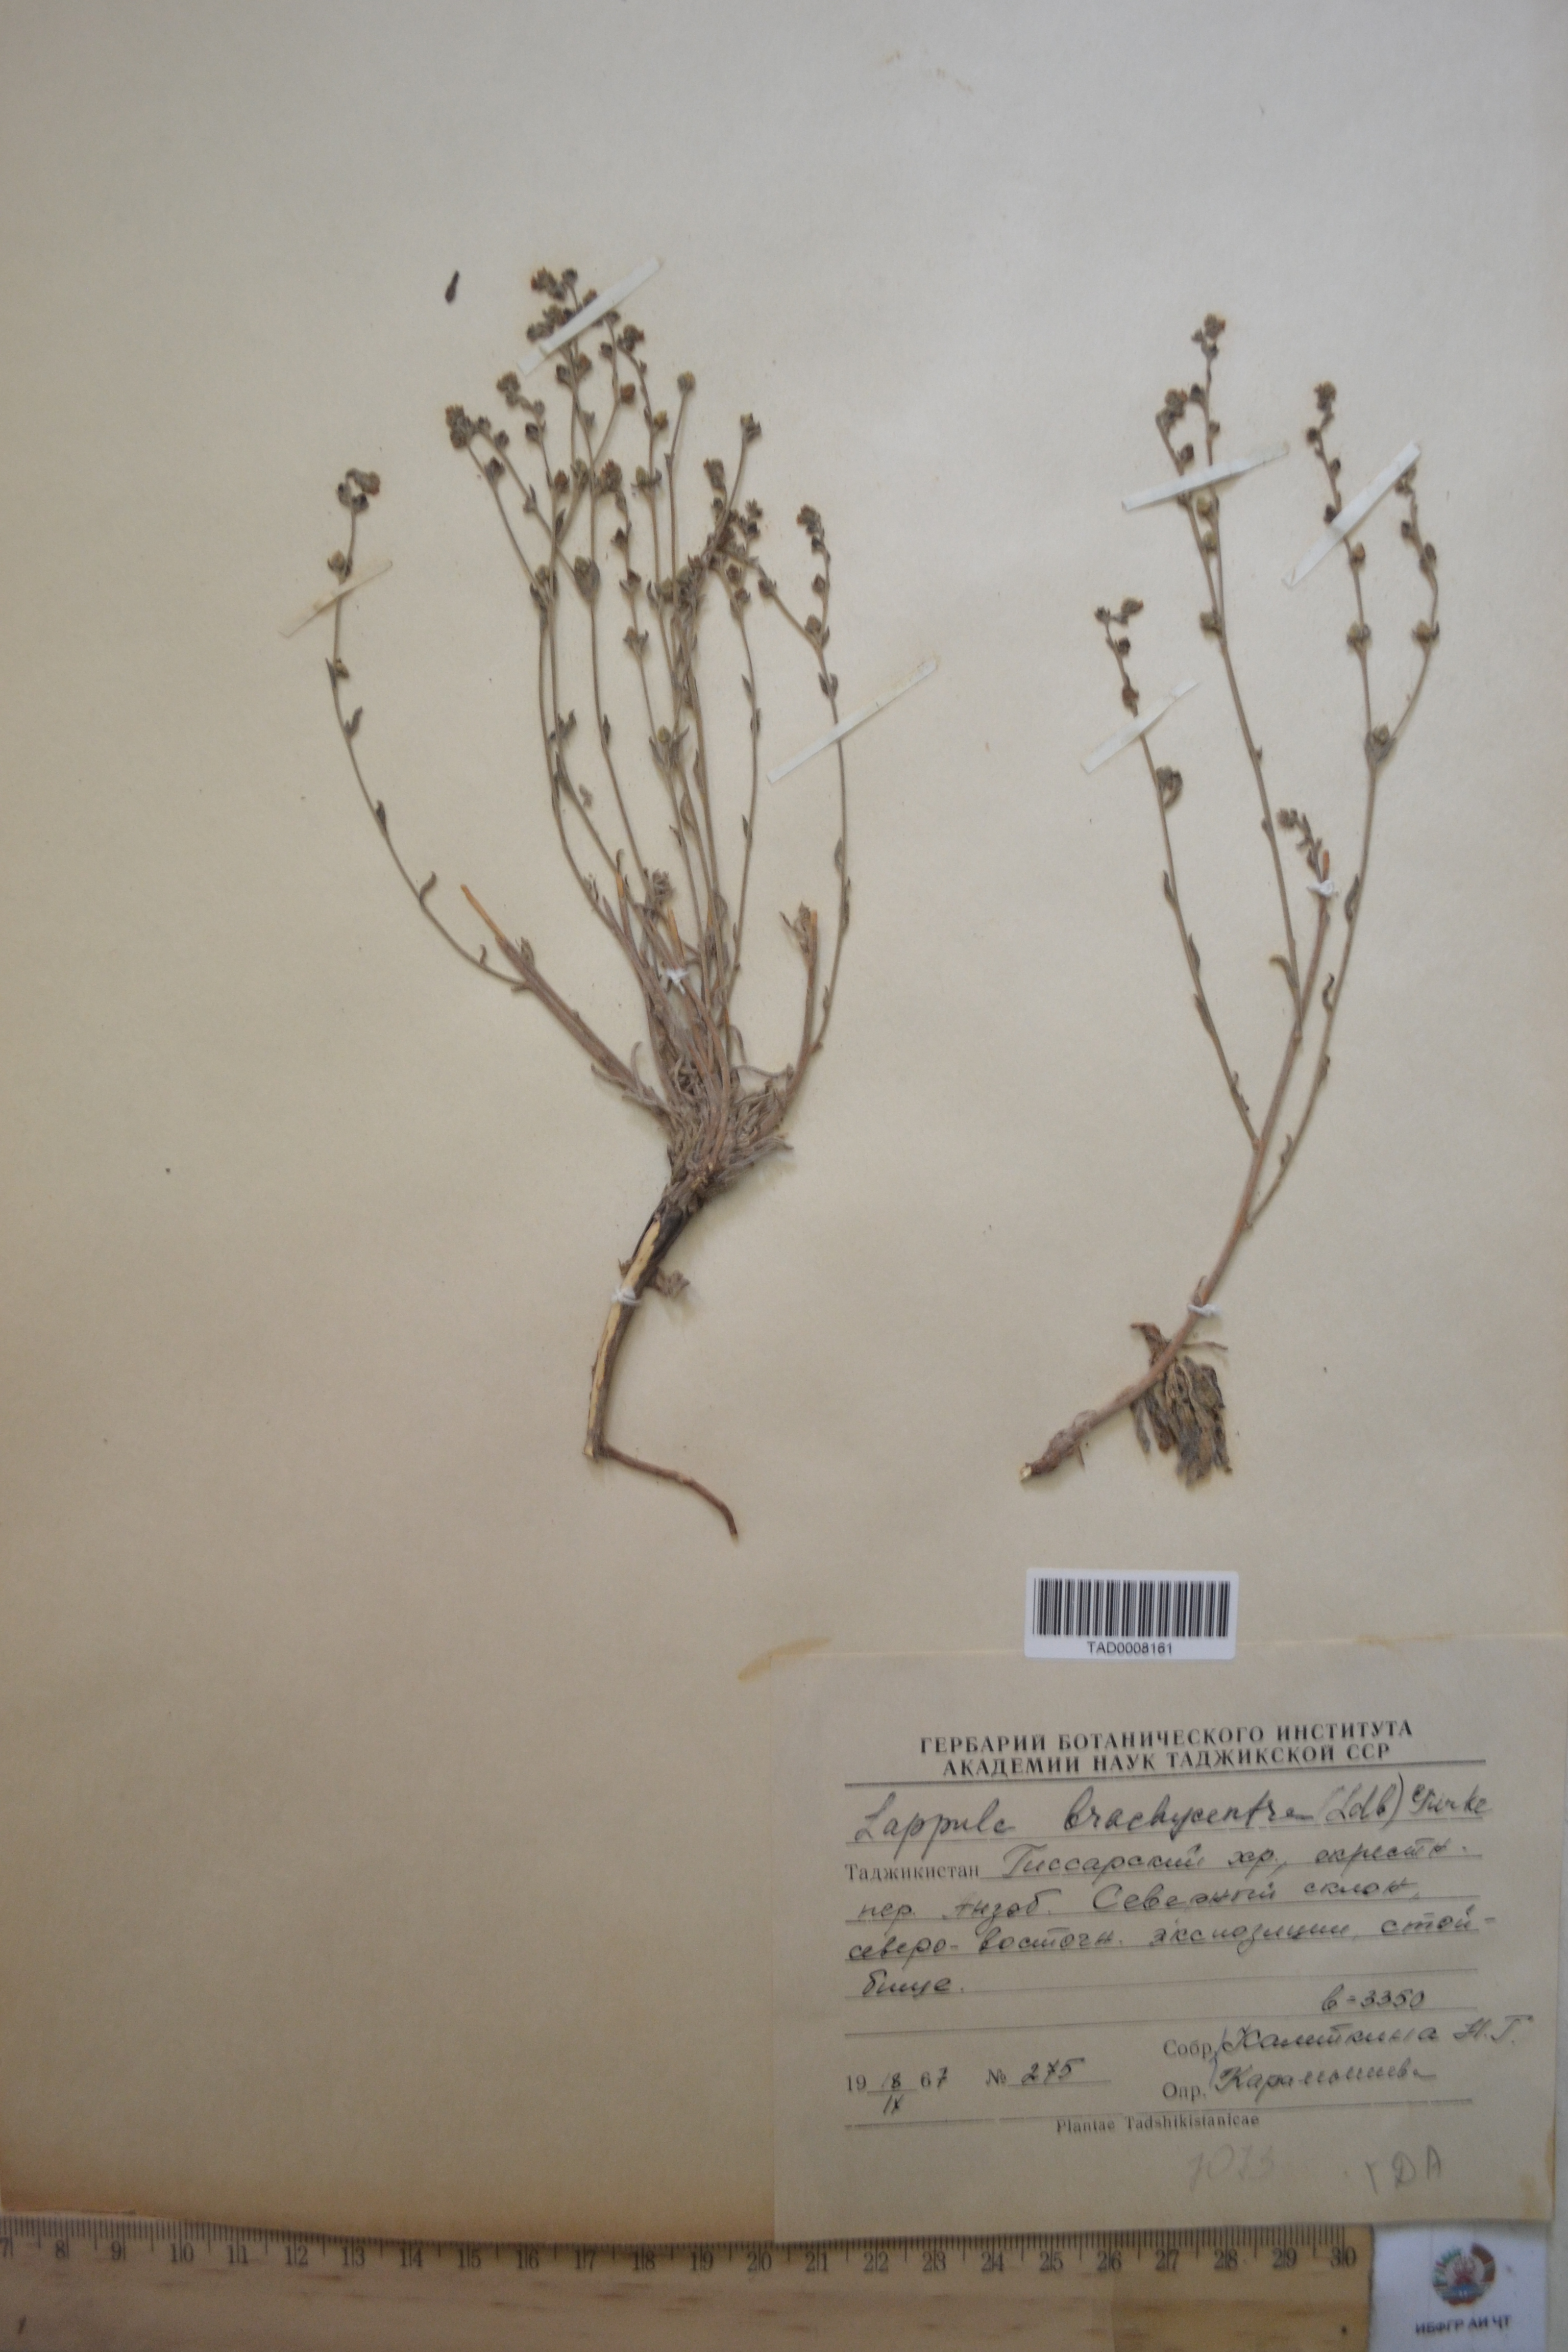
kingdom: Plantae
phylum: Tracheophyta
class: Magnoliopsida
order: Boraginales
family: Boraginaceae
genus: Lappula
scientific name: Lappula brachycentra
